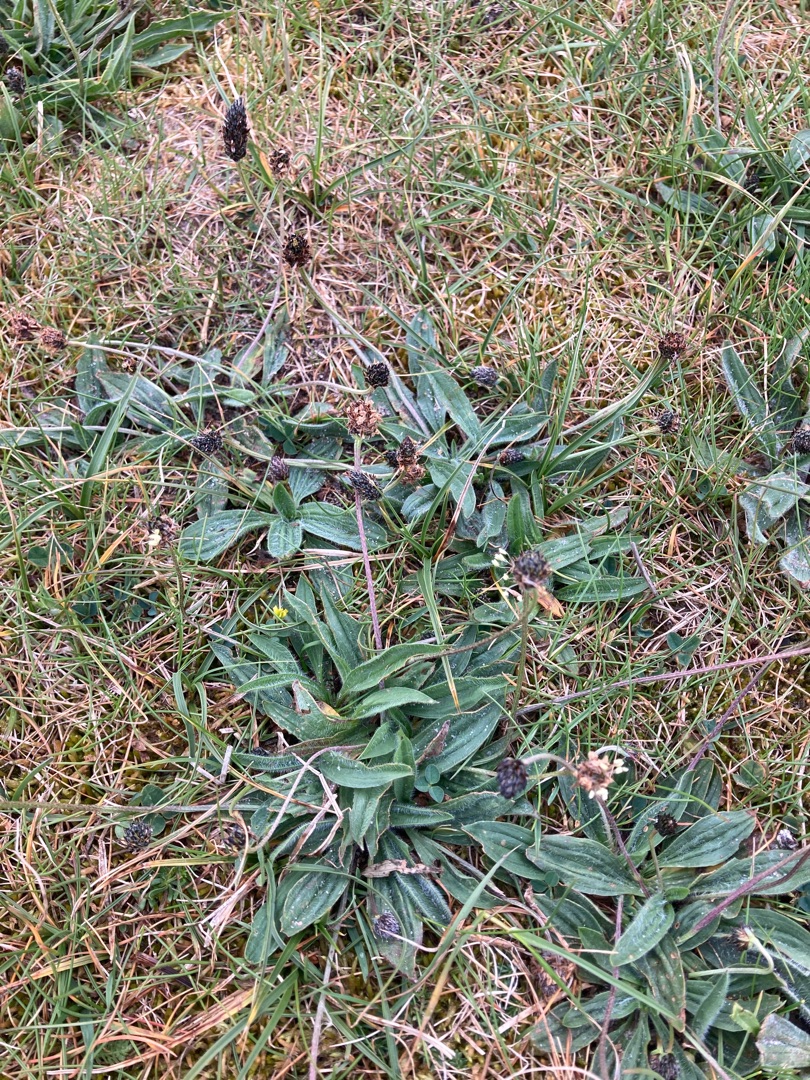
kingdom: Plantae
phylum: Tracheophyta
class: Magnoliopsida
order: Lamiales
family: Plantaginaceae
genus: Plantago
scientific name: Plantago lanceolata
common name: Lancet-vejbred
